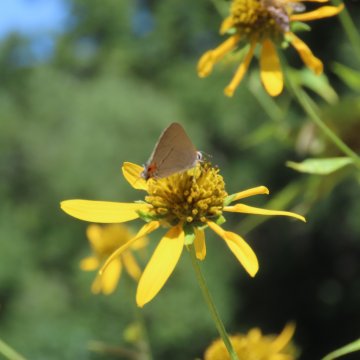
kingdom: Animalia
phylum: Arthropoda
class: Insecta
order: Lepidoptera
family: Lycaenidae
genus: Strymon
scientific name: Strymon melinus
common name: Gray Hairstreak
